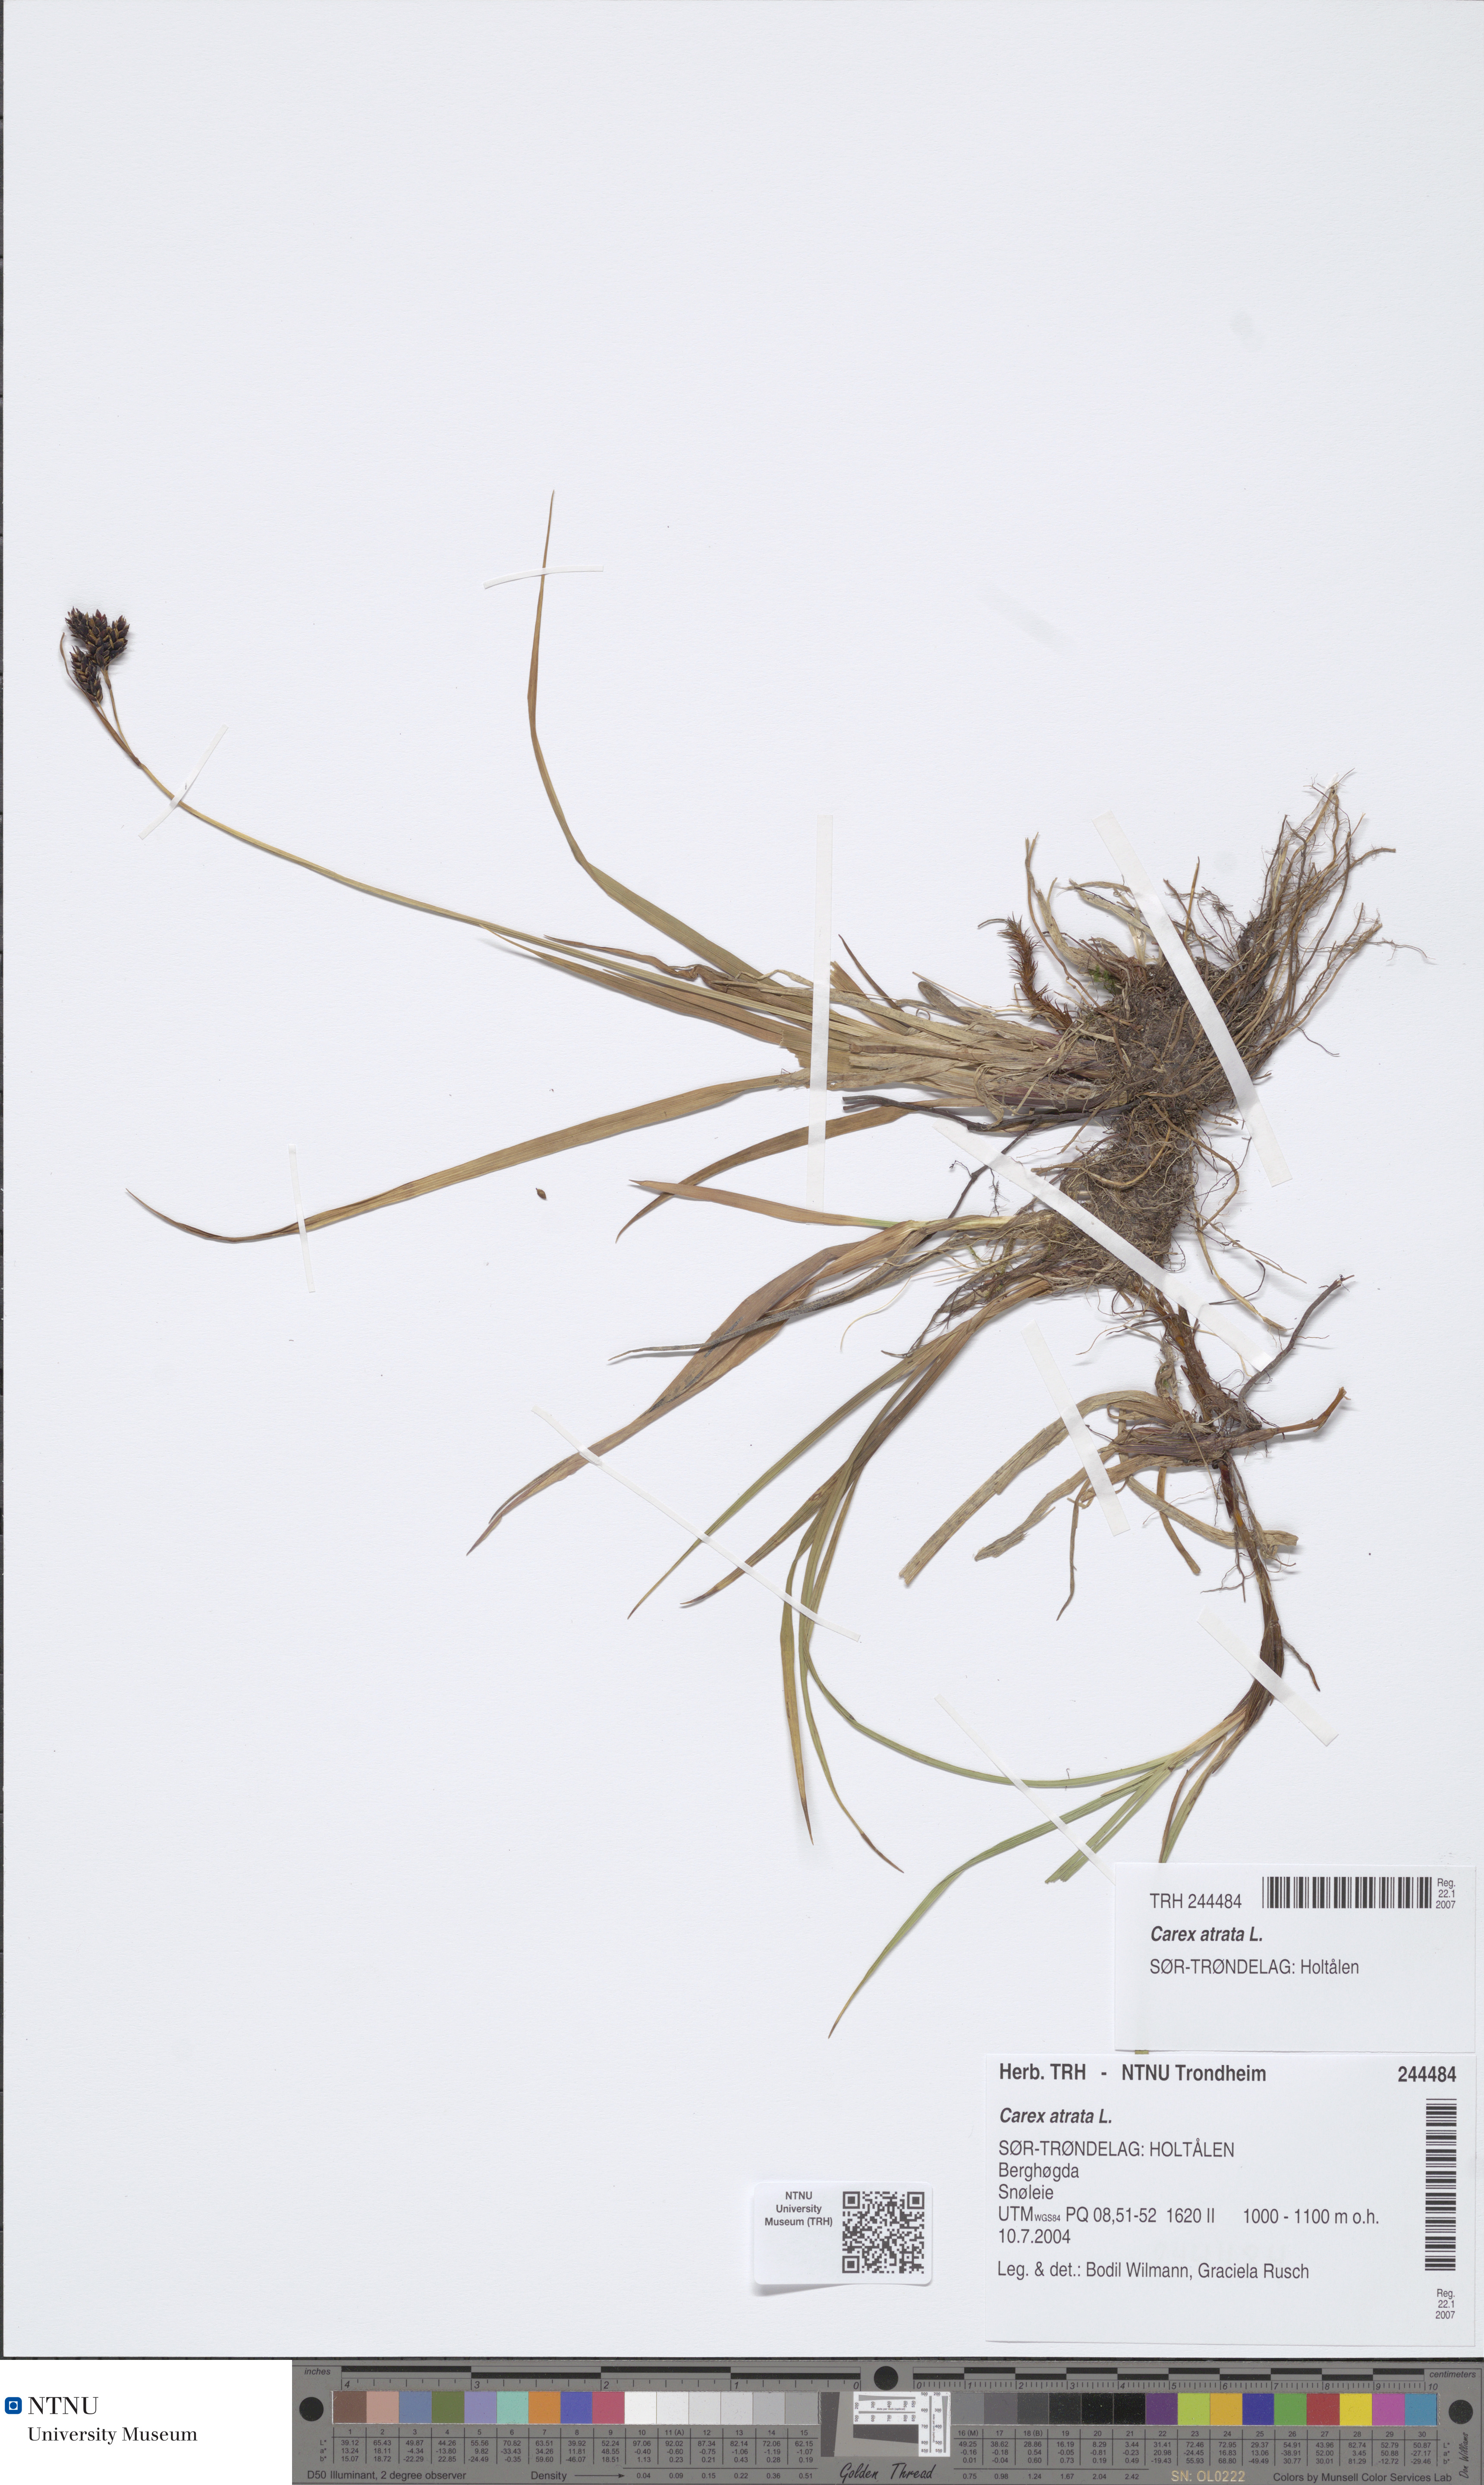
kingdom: Plantae
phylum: Tracheophyta
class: Liliopsida
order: Poales
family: Cyperaceae
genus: Carex
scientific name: Carex atrata
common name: Black alpine sedge
